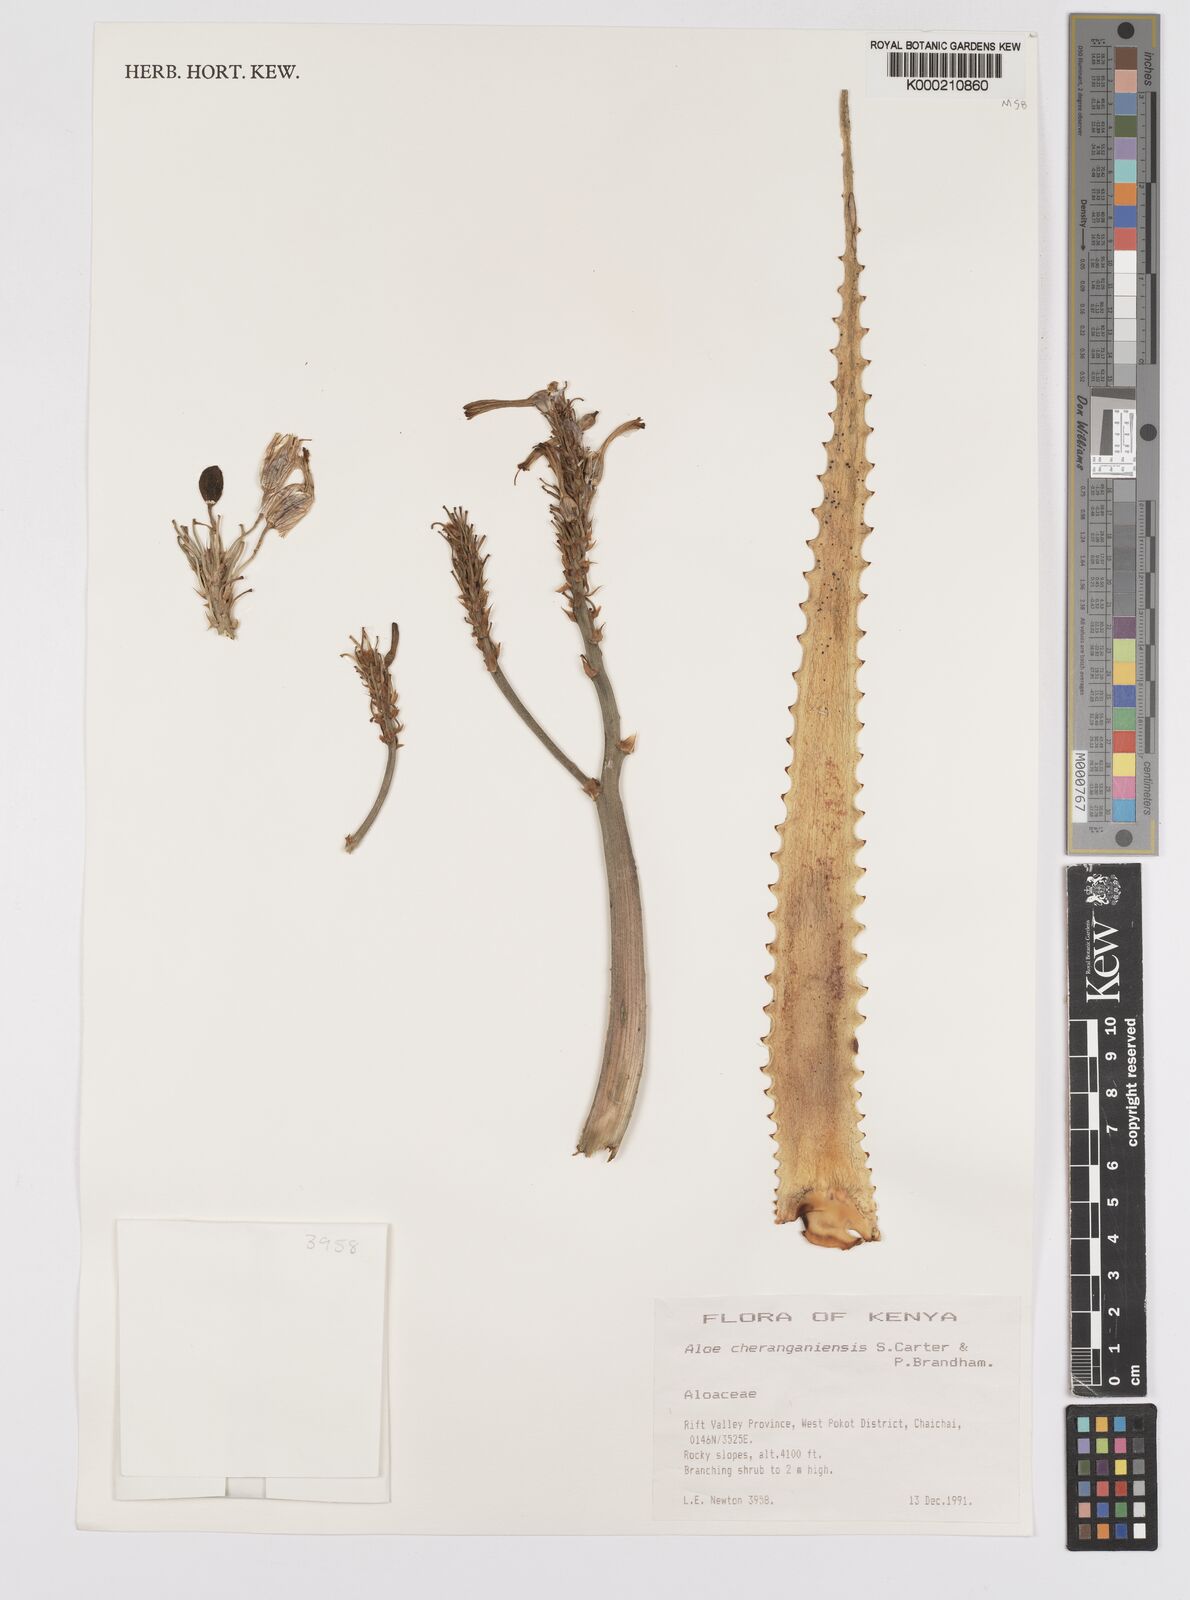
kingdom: Plantae
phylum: Tracheophyta
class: Liliopsida
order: Asparagales
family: Asphodelaceae
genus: Aloe
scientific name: Aloe cheranganiensis
